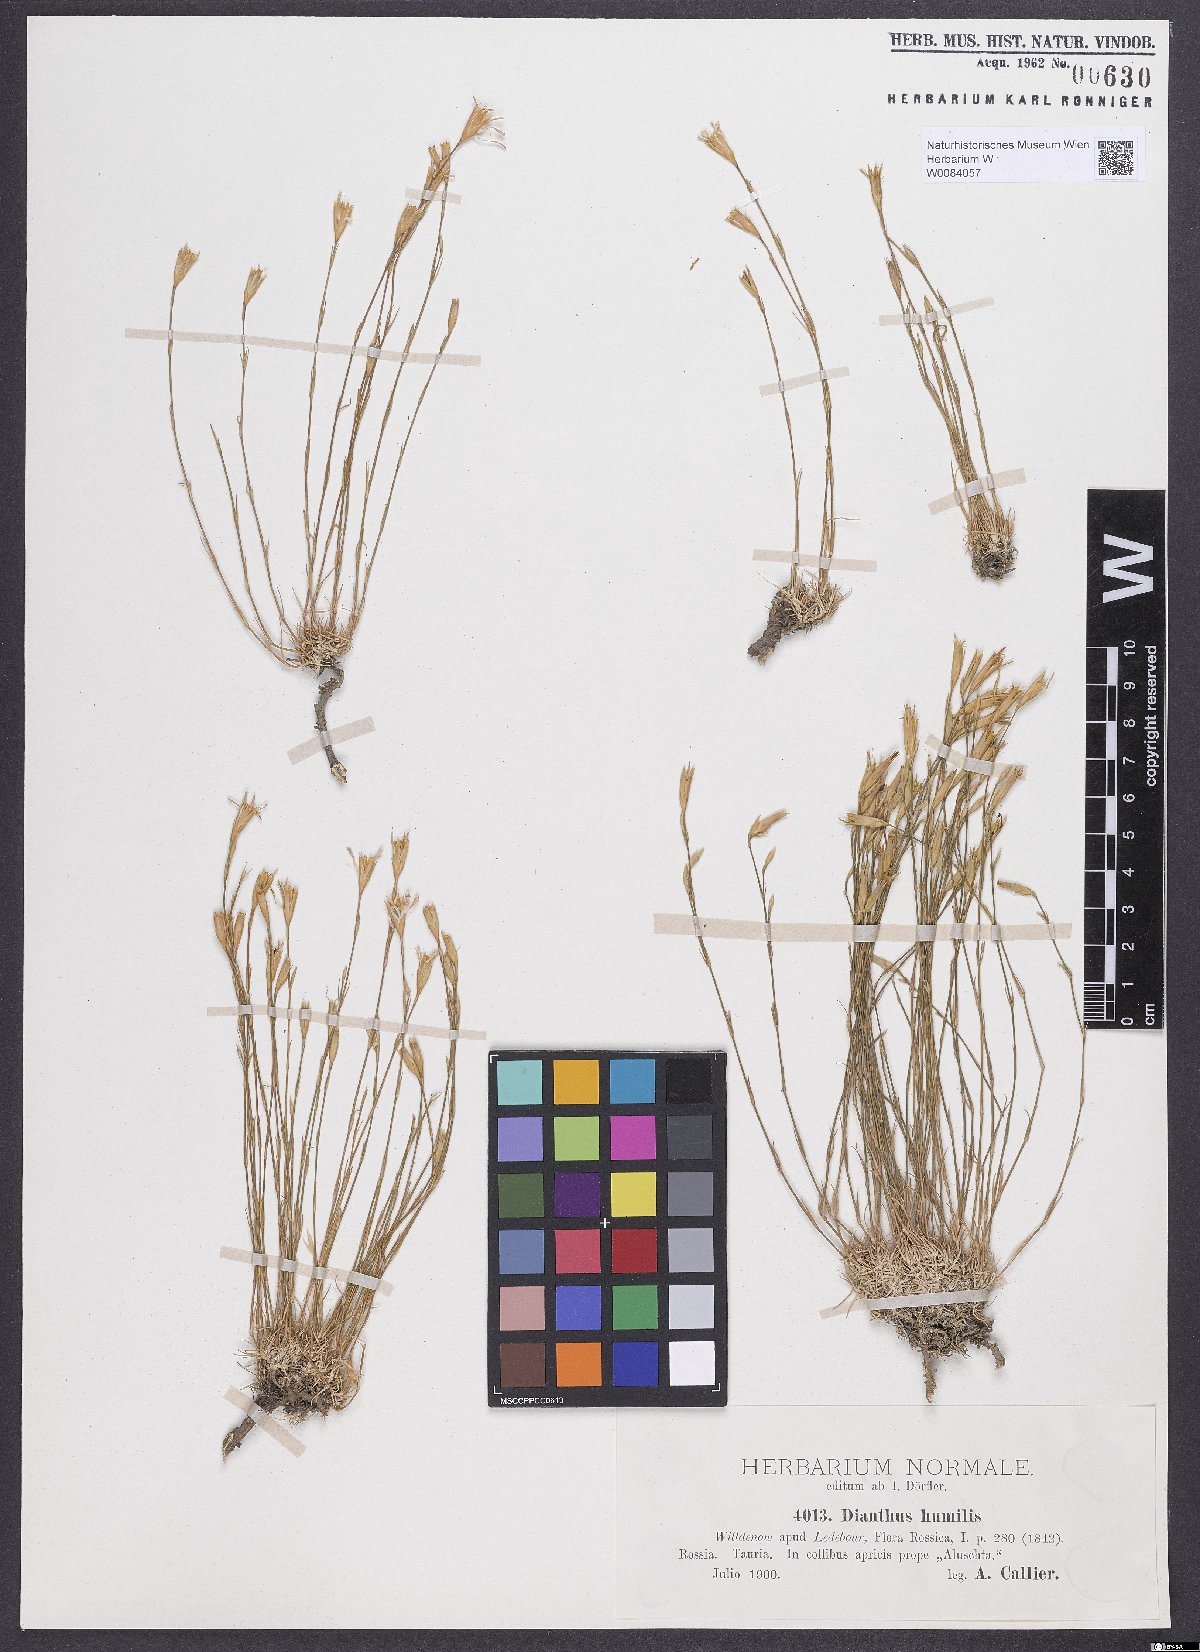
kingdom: Plantae
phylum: Tracheophyta
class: Magnoliopsida
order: Caryophyllales
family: Caryophyllaceae
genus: Dianthus
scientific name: Dianthus humilis
